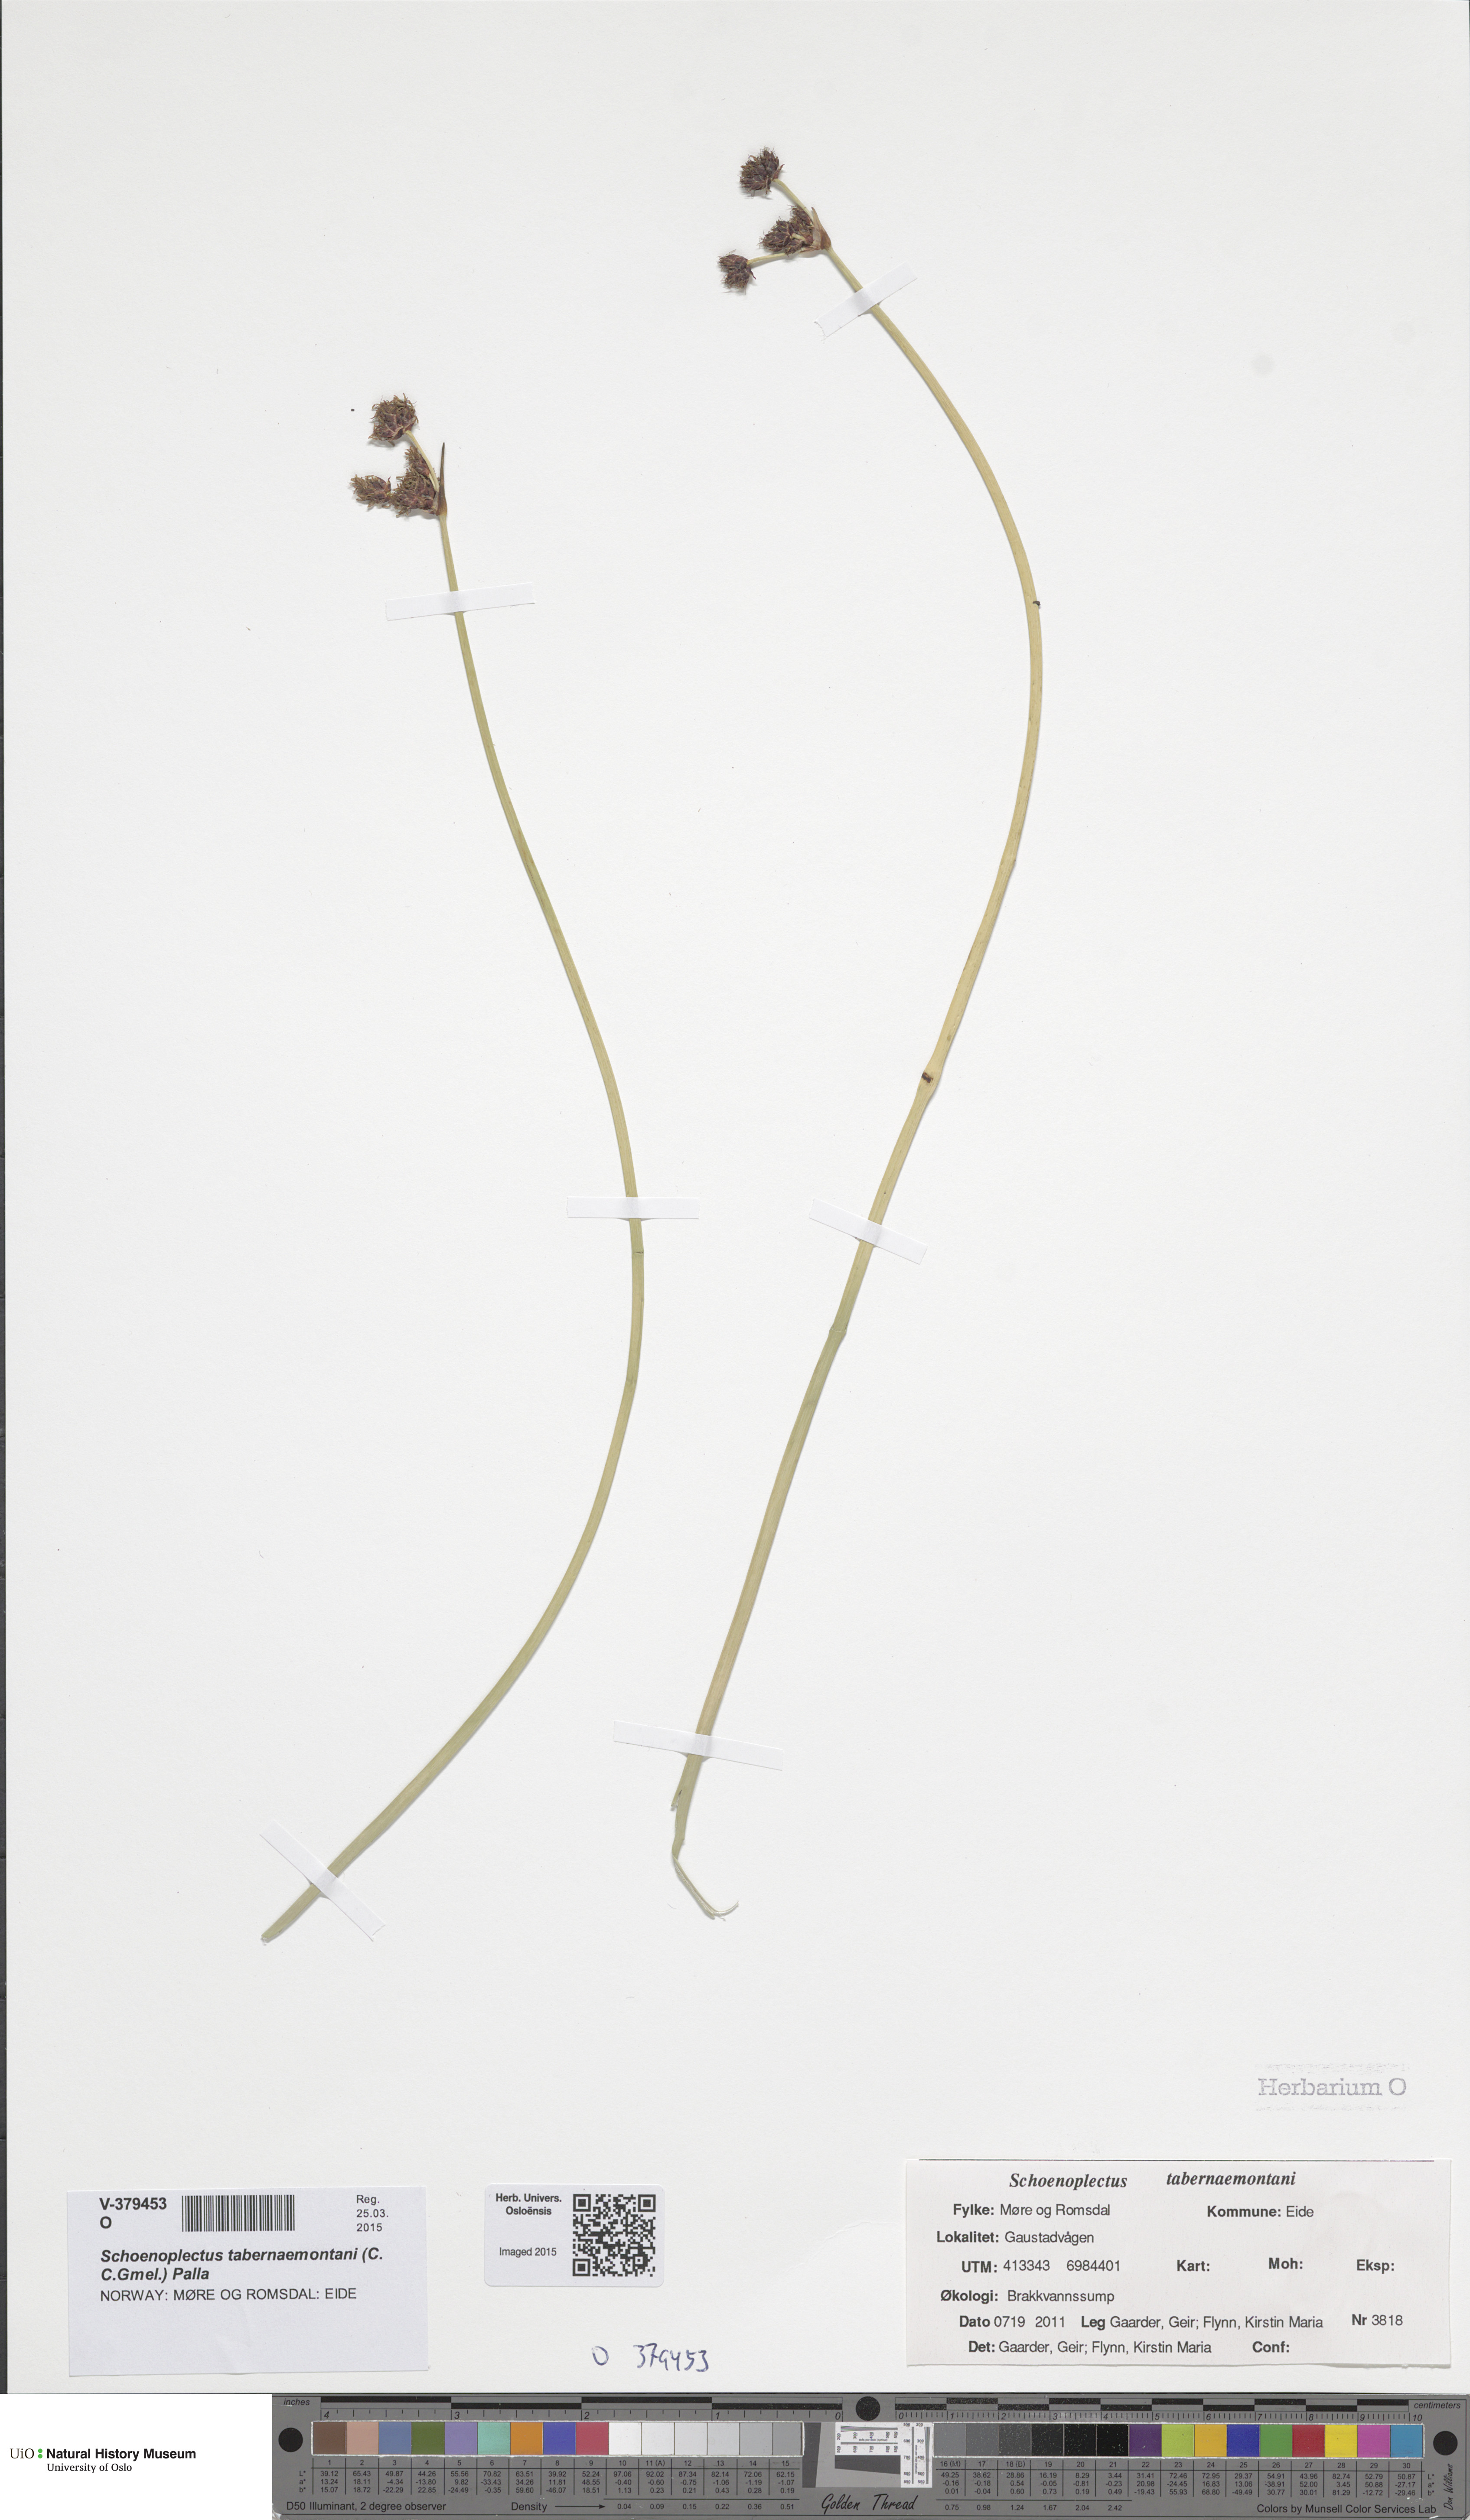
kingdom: Plantae
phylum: Tracheophyta
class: Liliopsida
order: Poales
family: Cyperaceae
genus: Schoenoplectus
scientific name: Schoenoplectus tabernaemontani
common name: Grey club-rush
